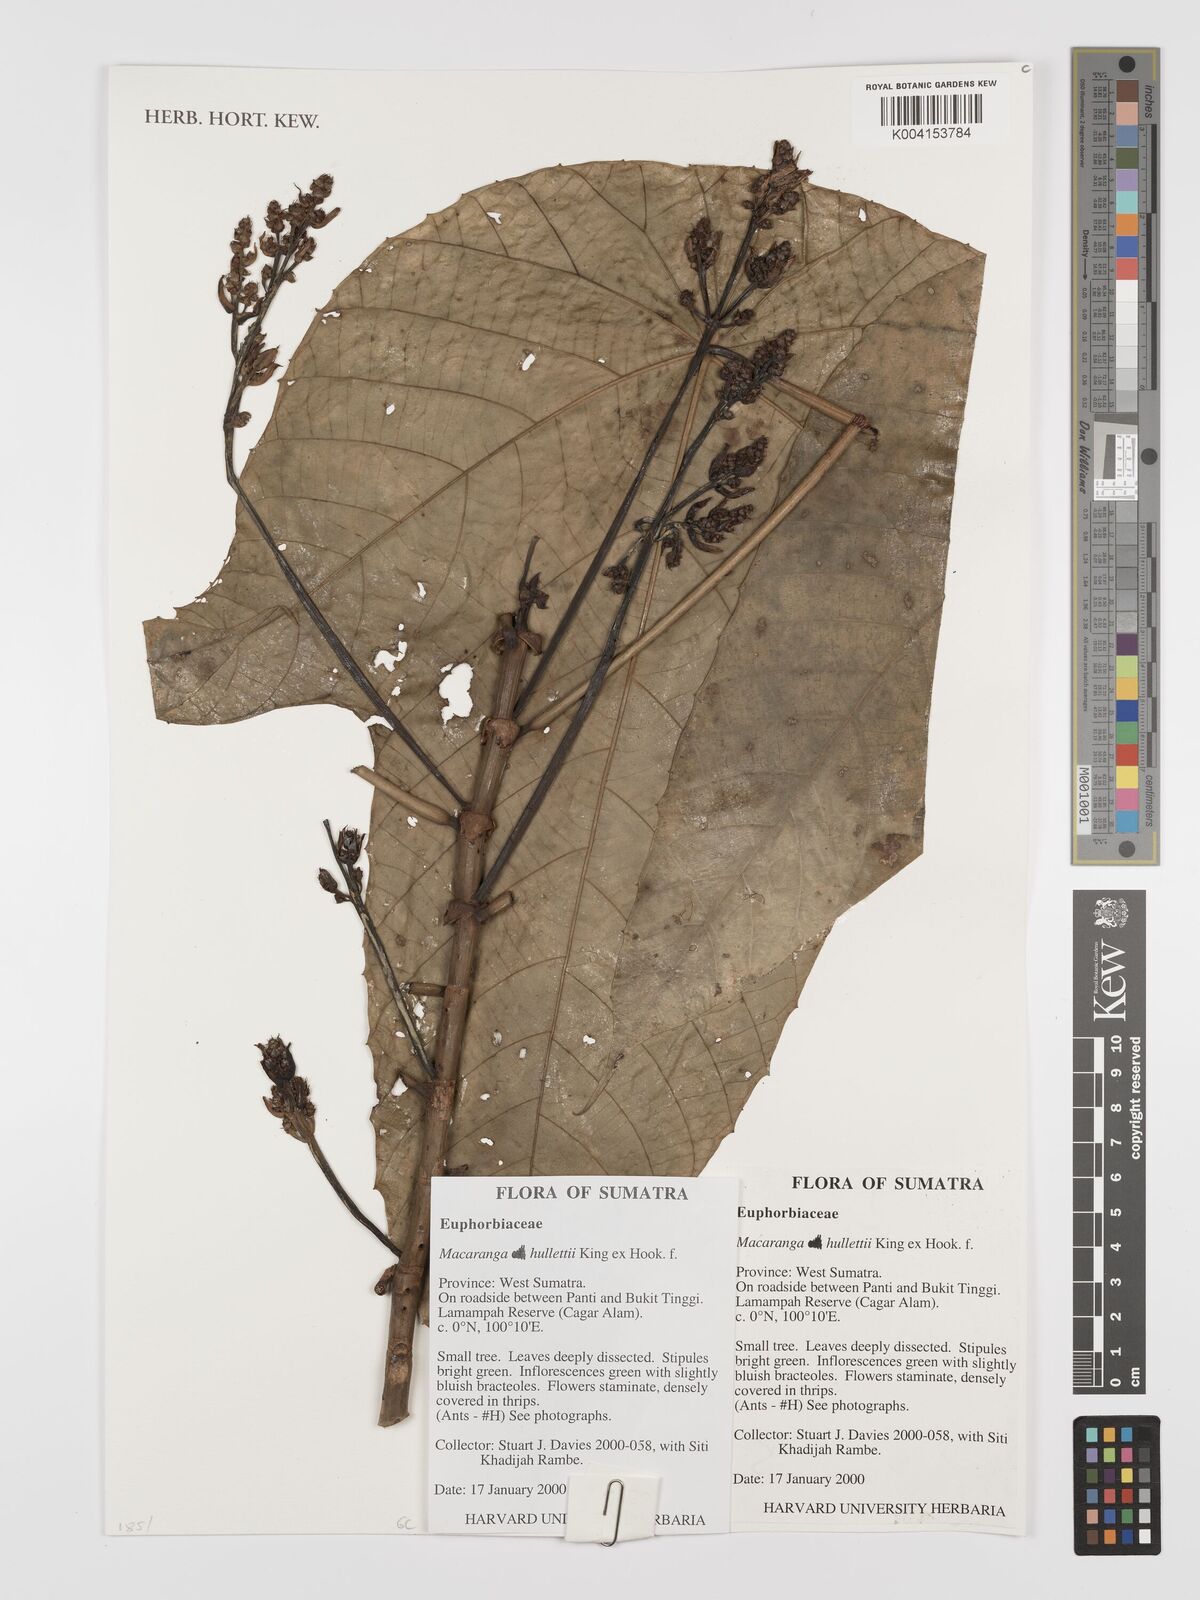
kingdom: Plantae
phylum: Tracheophyta
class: Magnoliopsida
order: Malpighiales
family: Euphorbiaceae
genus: Macaranga
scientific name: Macaranga hullettii
